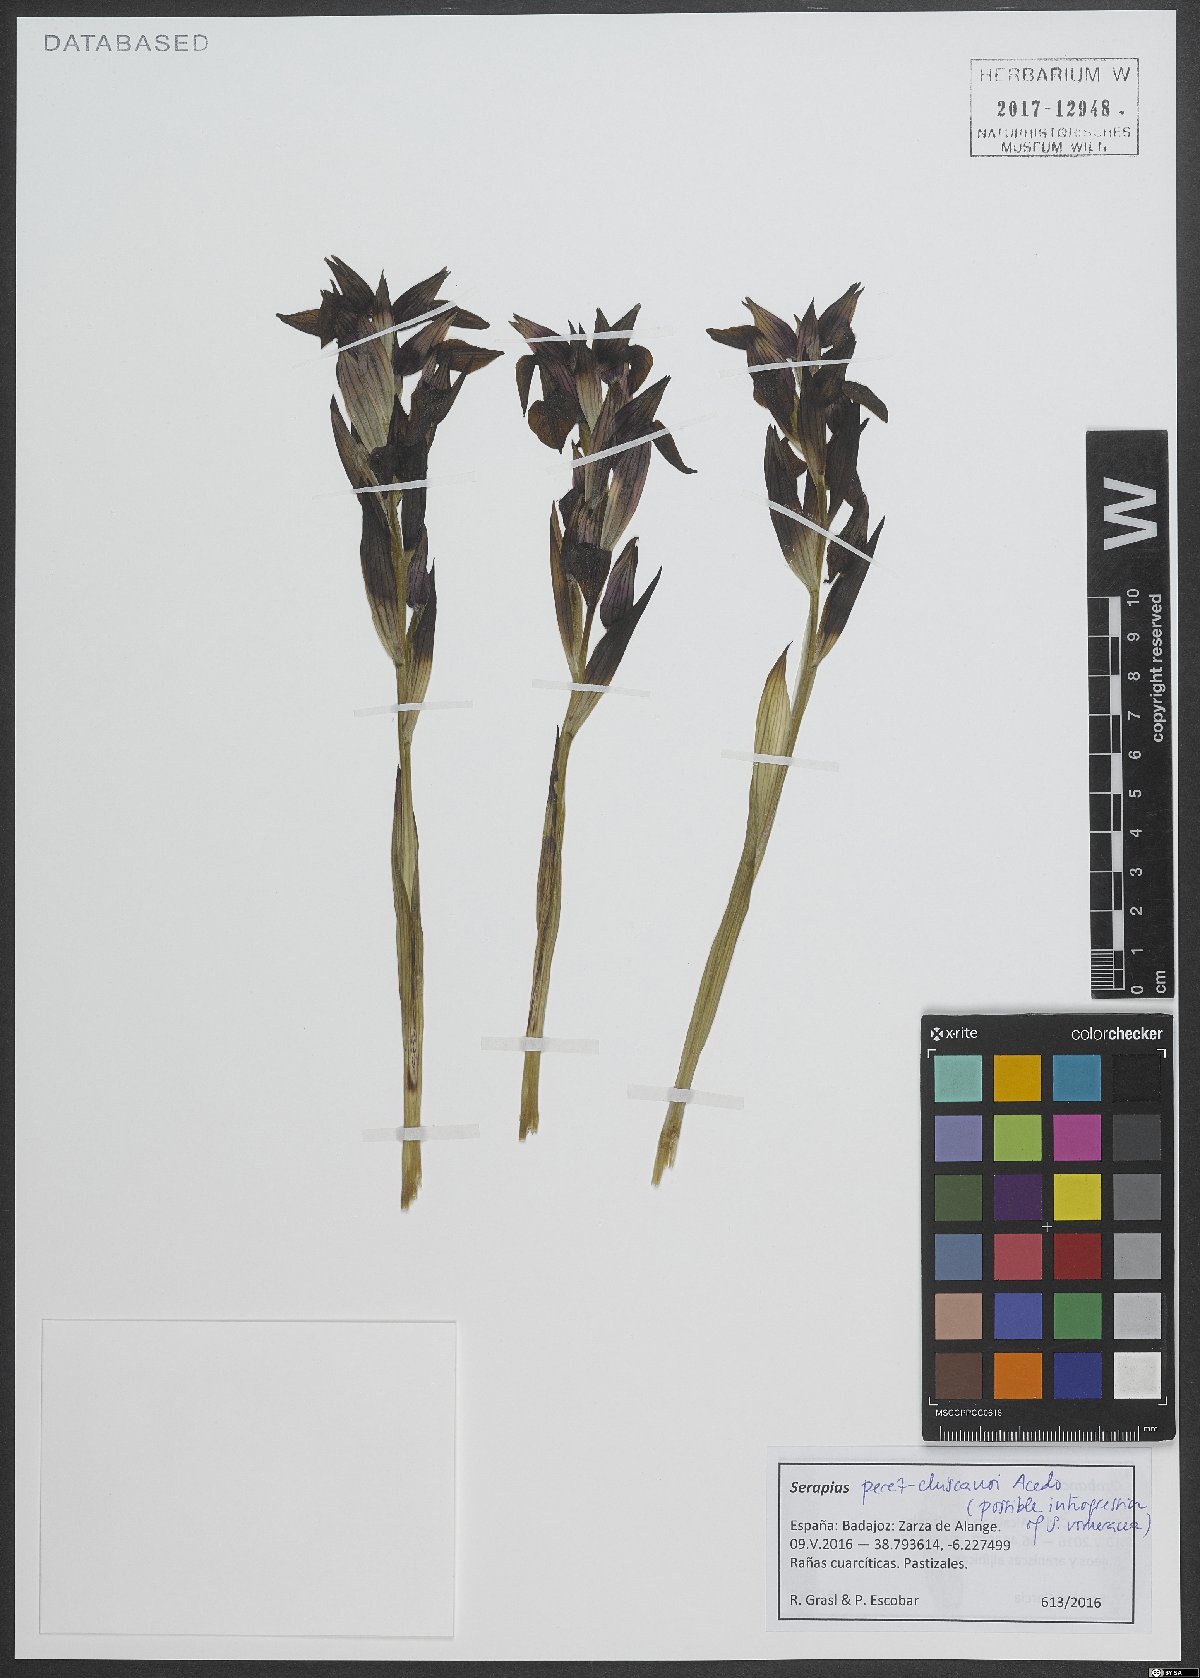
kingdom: Plantae
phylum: Tracheophyta
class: Liliopsida
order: Asparagales
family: Orchidaceae
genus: Serapias
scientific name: Serapias perez-chiscanoi
